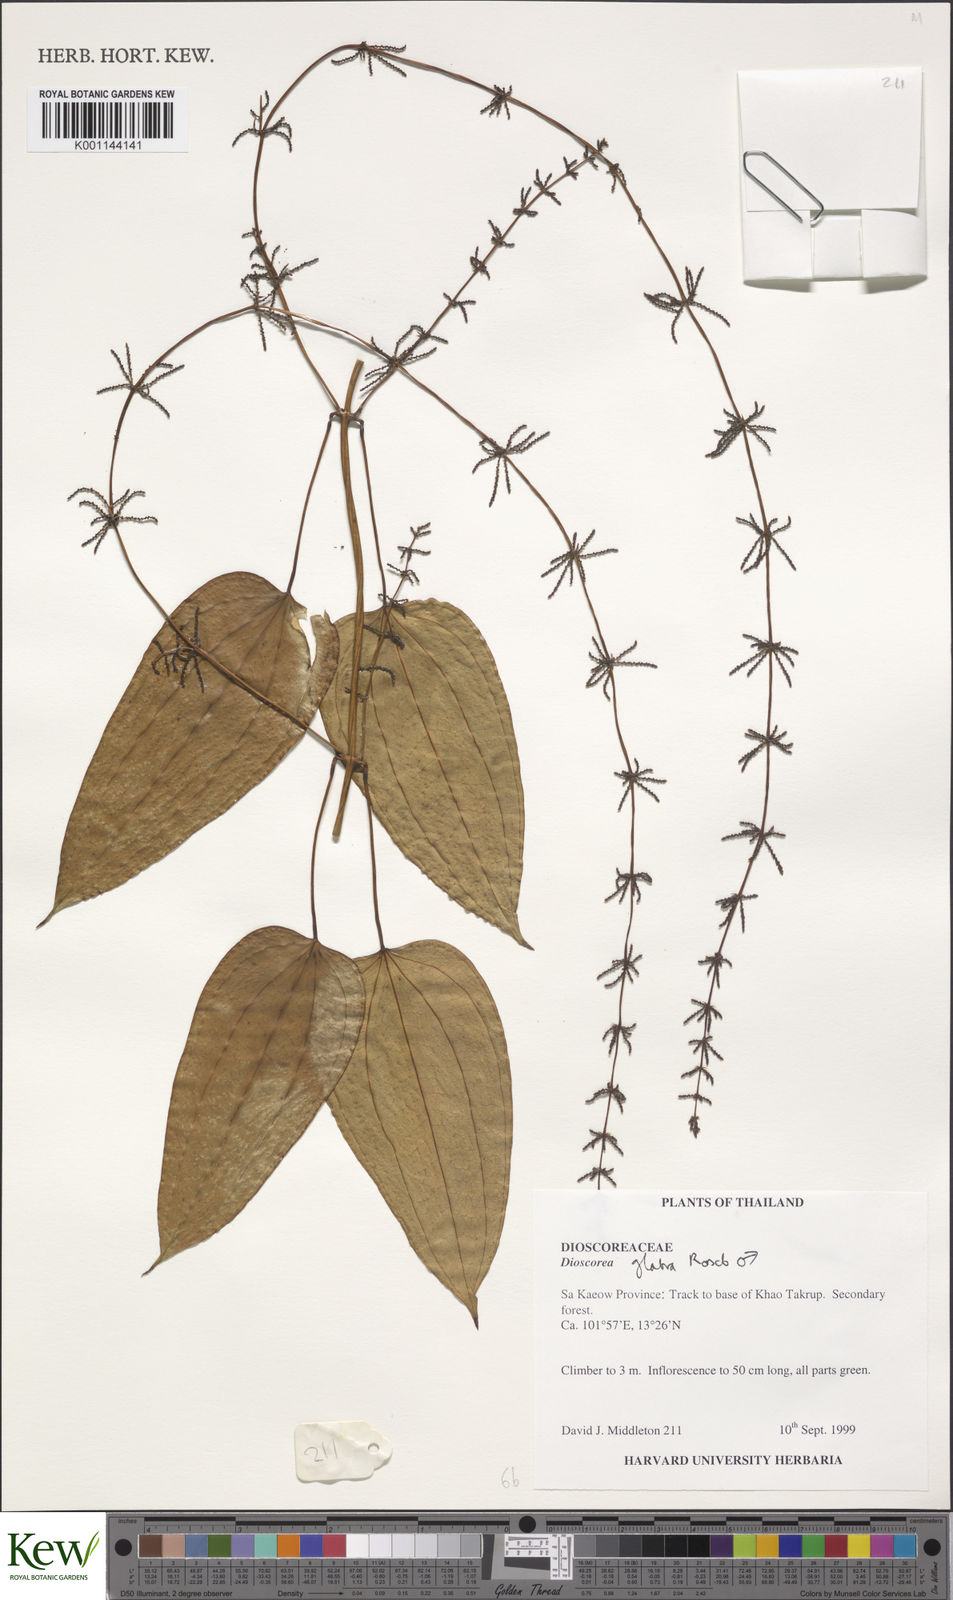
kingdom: Plantae
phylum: Tracheophyta
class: Liliopsida
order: Dioscoreales
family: Dioscoreaceae
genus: Dioscorea
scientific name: Dioscorea glabra
